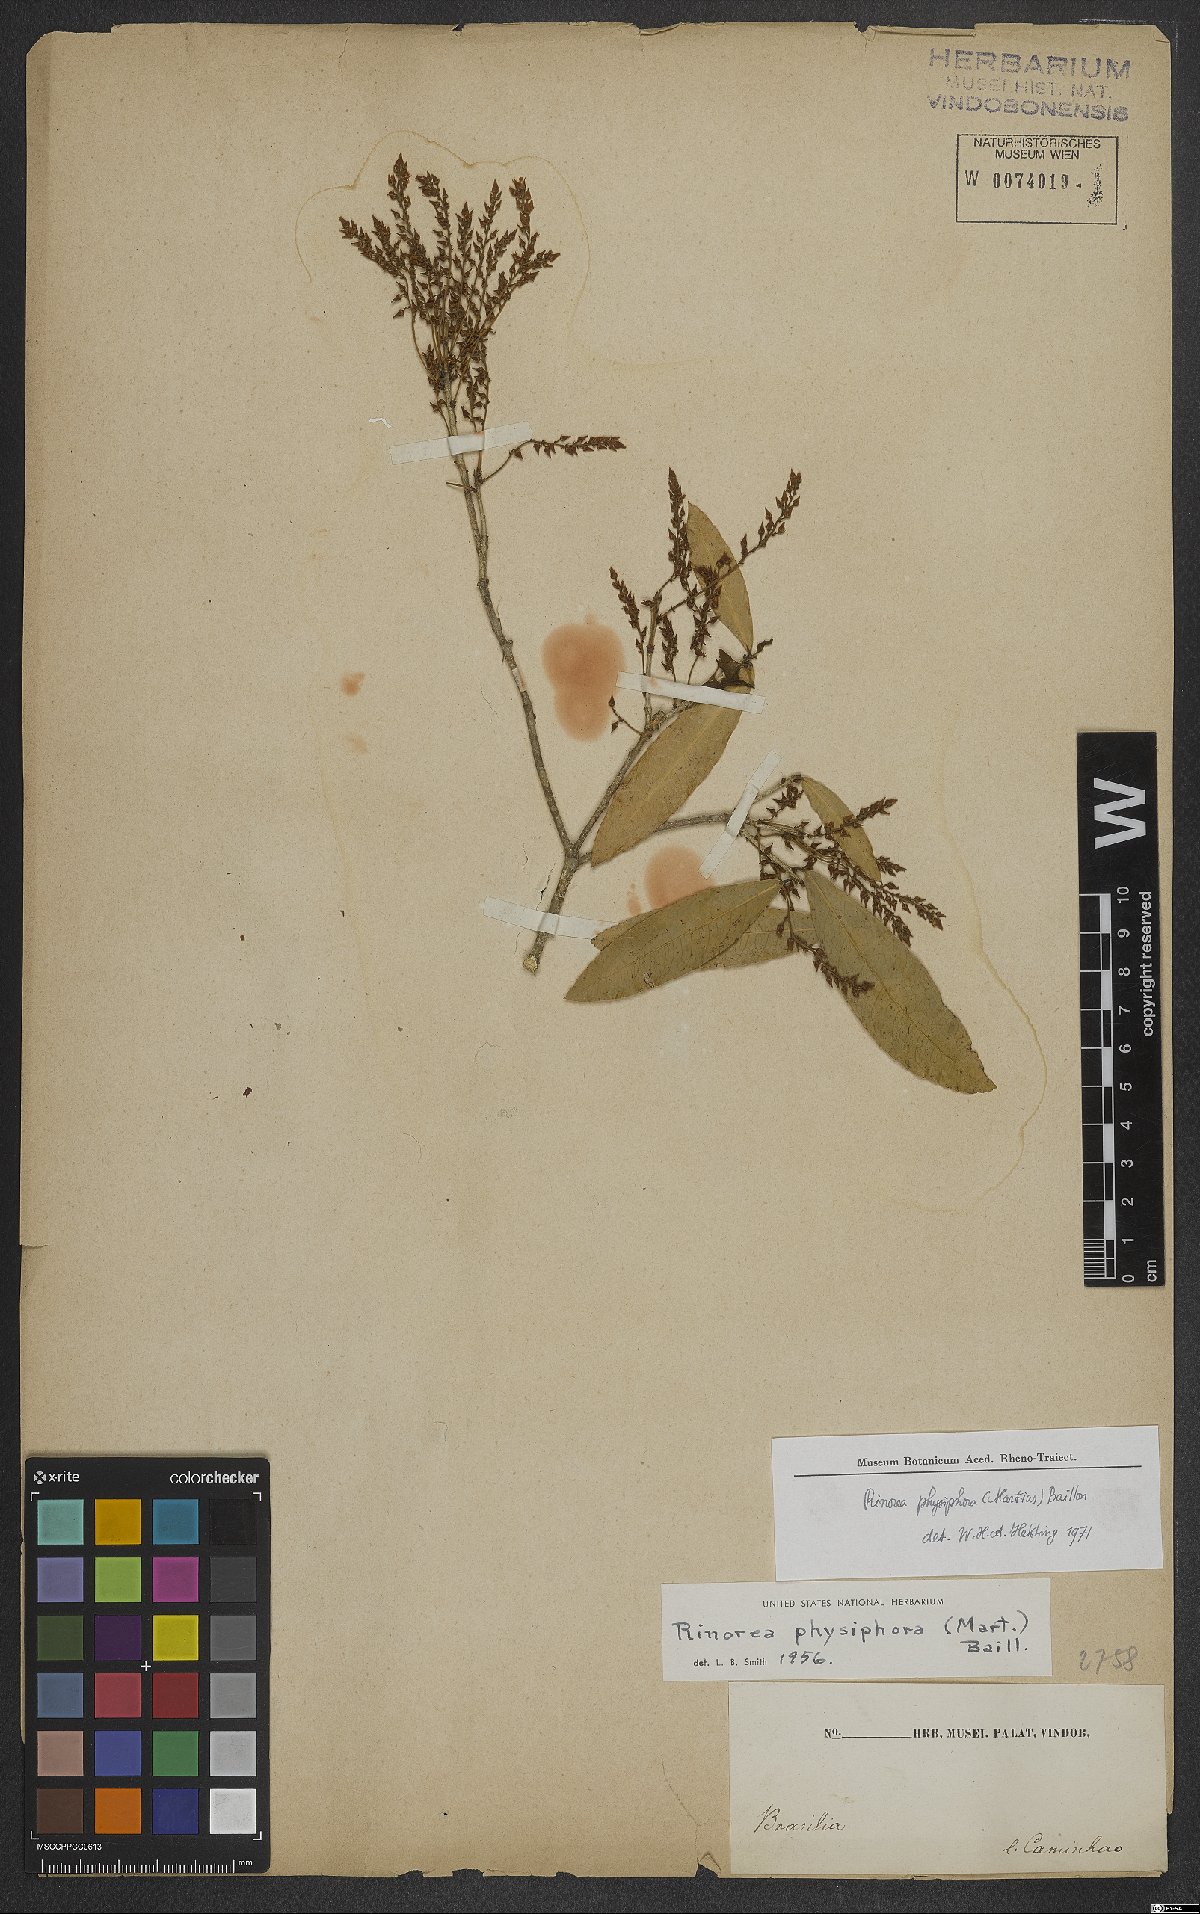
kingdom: Plantae
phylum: Tracheophyta
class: Magnoliopsida
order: Malpighiales
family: Violaceae
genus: Rinorea
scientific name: Rinorea laevigata
